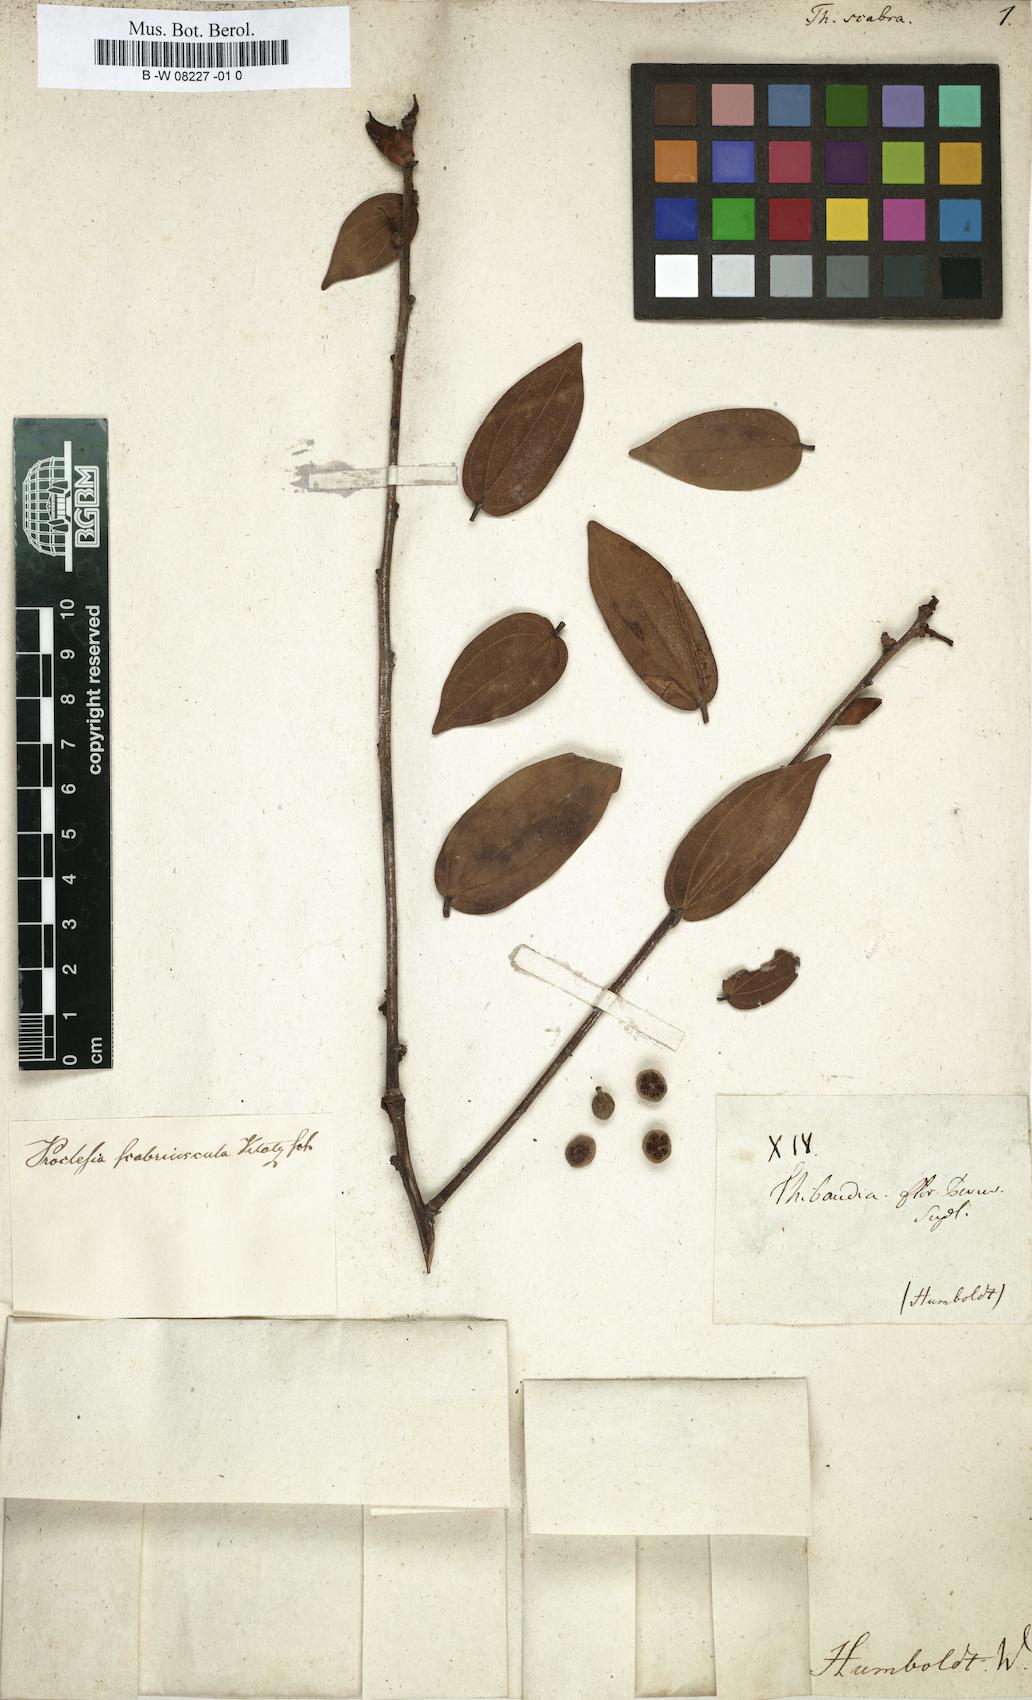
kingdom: Plantae
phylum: Tracheophyta
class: Magnoliopsida
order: Ericales
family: Ericaceae
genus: Thibaudia
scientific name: Thibaudia
